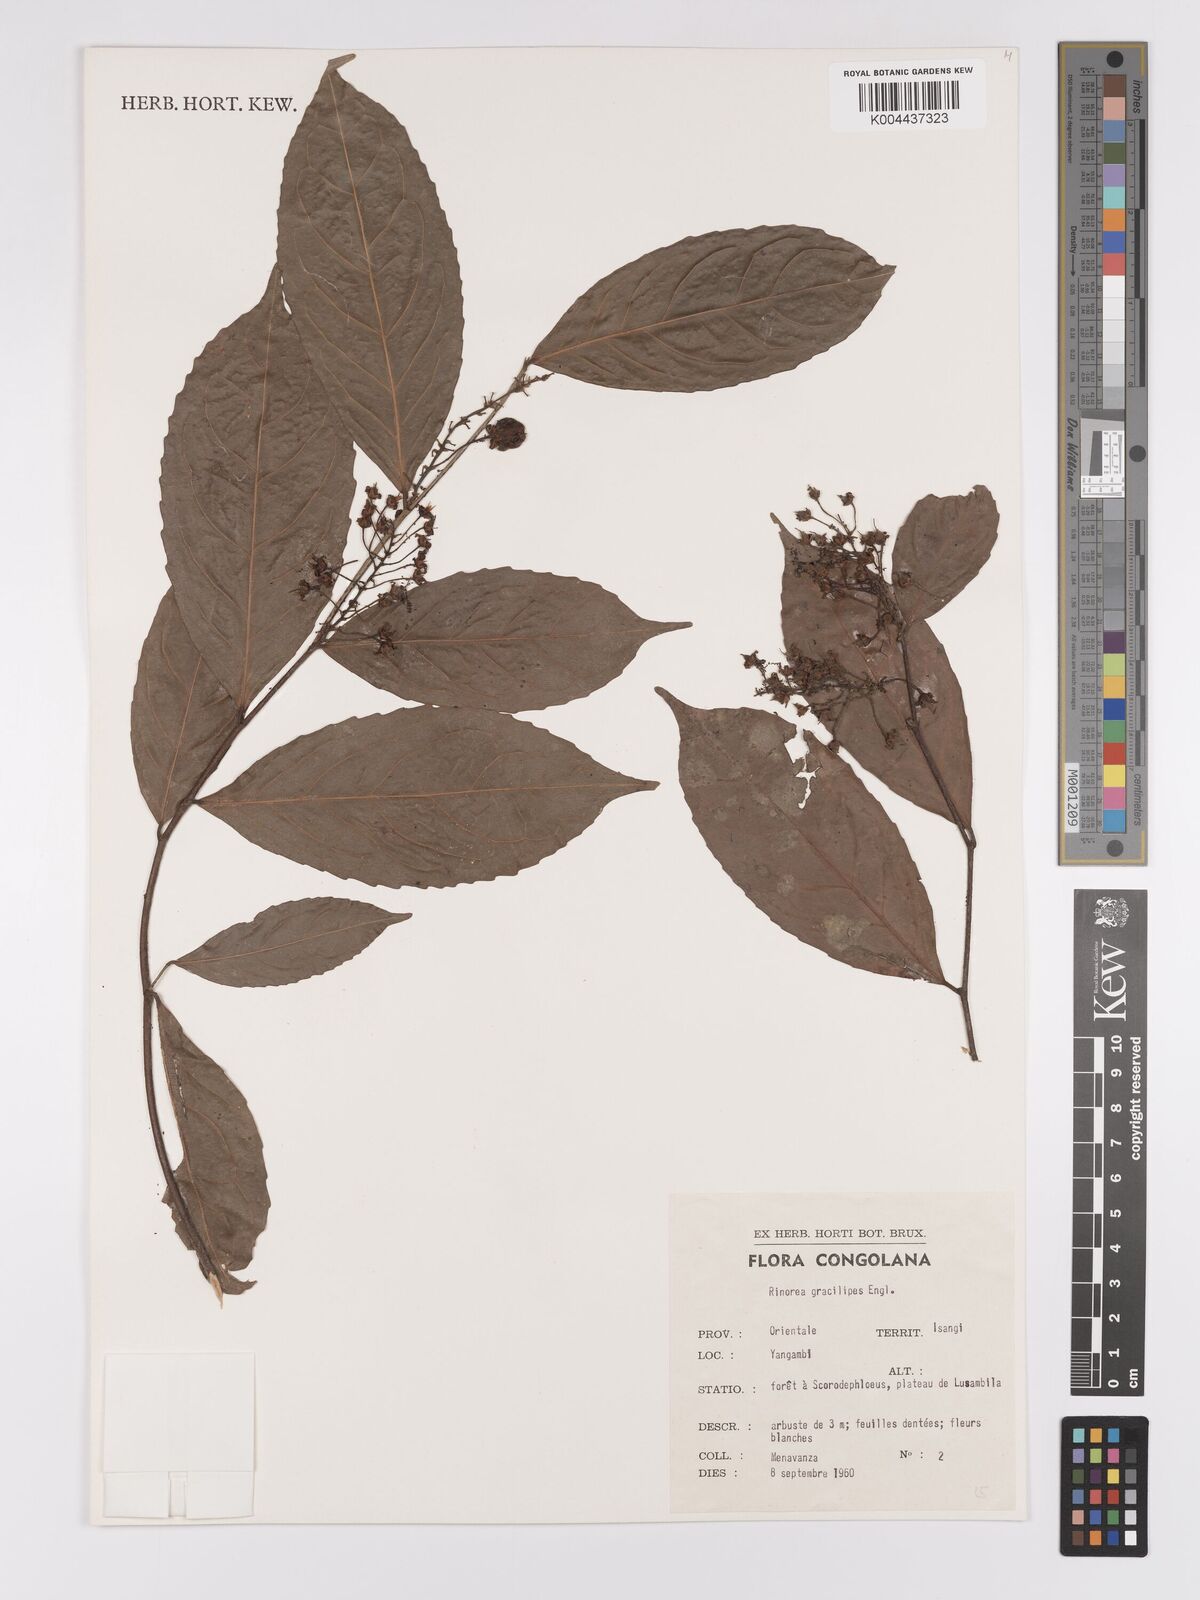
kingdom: Plantae
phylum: Tracheophyta
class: Magnoliopsida
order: Malpighiales
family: Violaceae
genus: Rinorea
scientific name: Rinorea angustifolia
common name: White violet-bush
